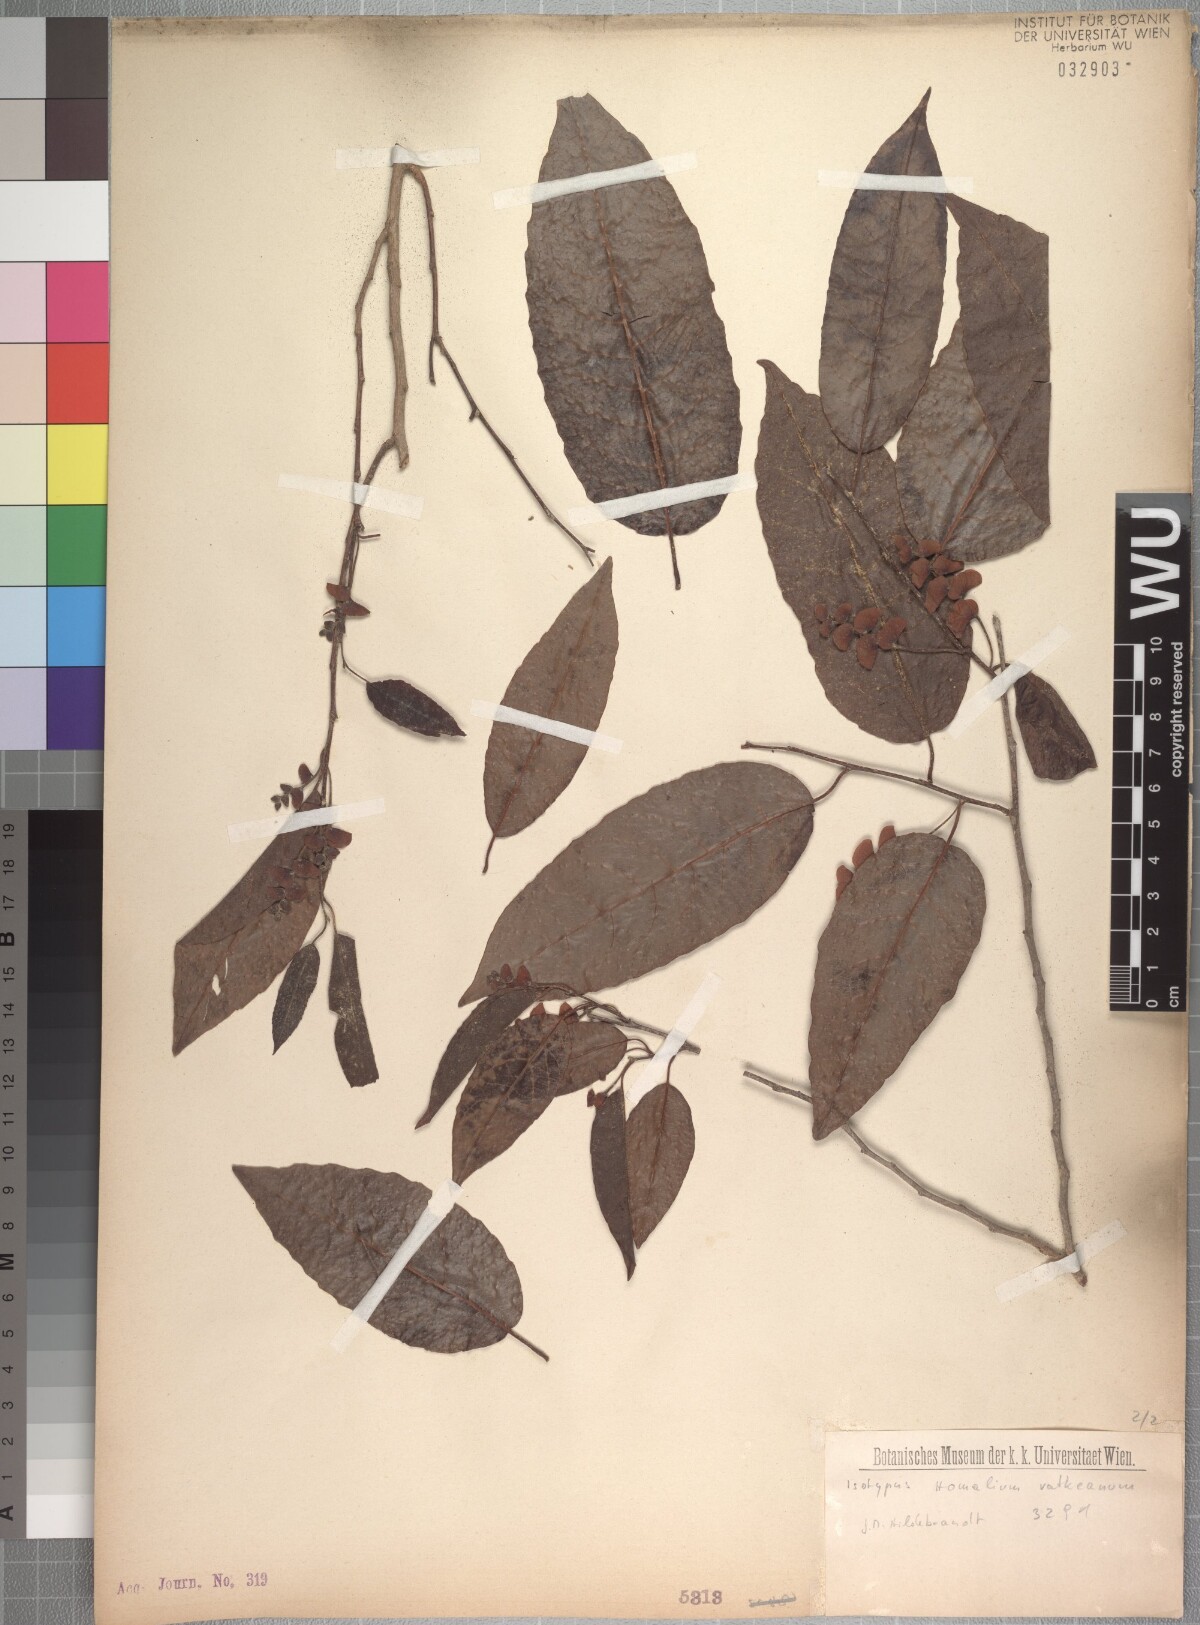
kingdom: Plantae
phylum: Tracheophyta
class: Magnoliopsida
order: Malpighiales
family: Salicaceae
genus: Homalium
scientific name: Homalium involucratum
